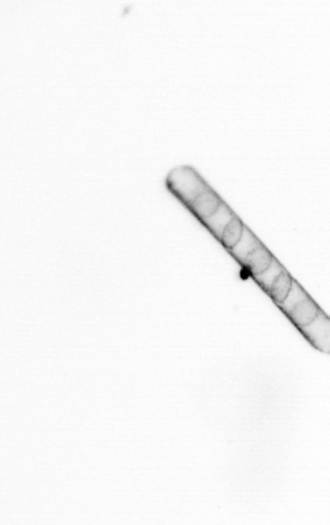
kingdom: Chromista
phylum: Ochrophyta
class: Bacillariophyceae
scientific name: Bacillariophyceae
